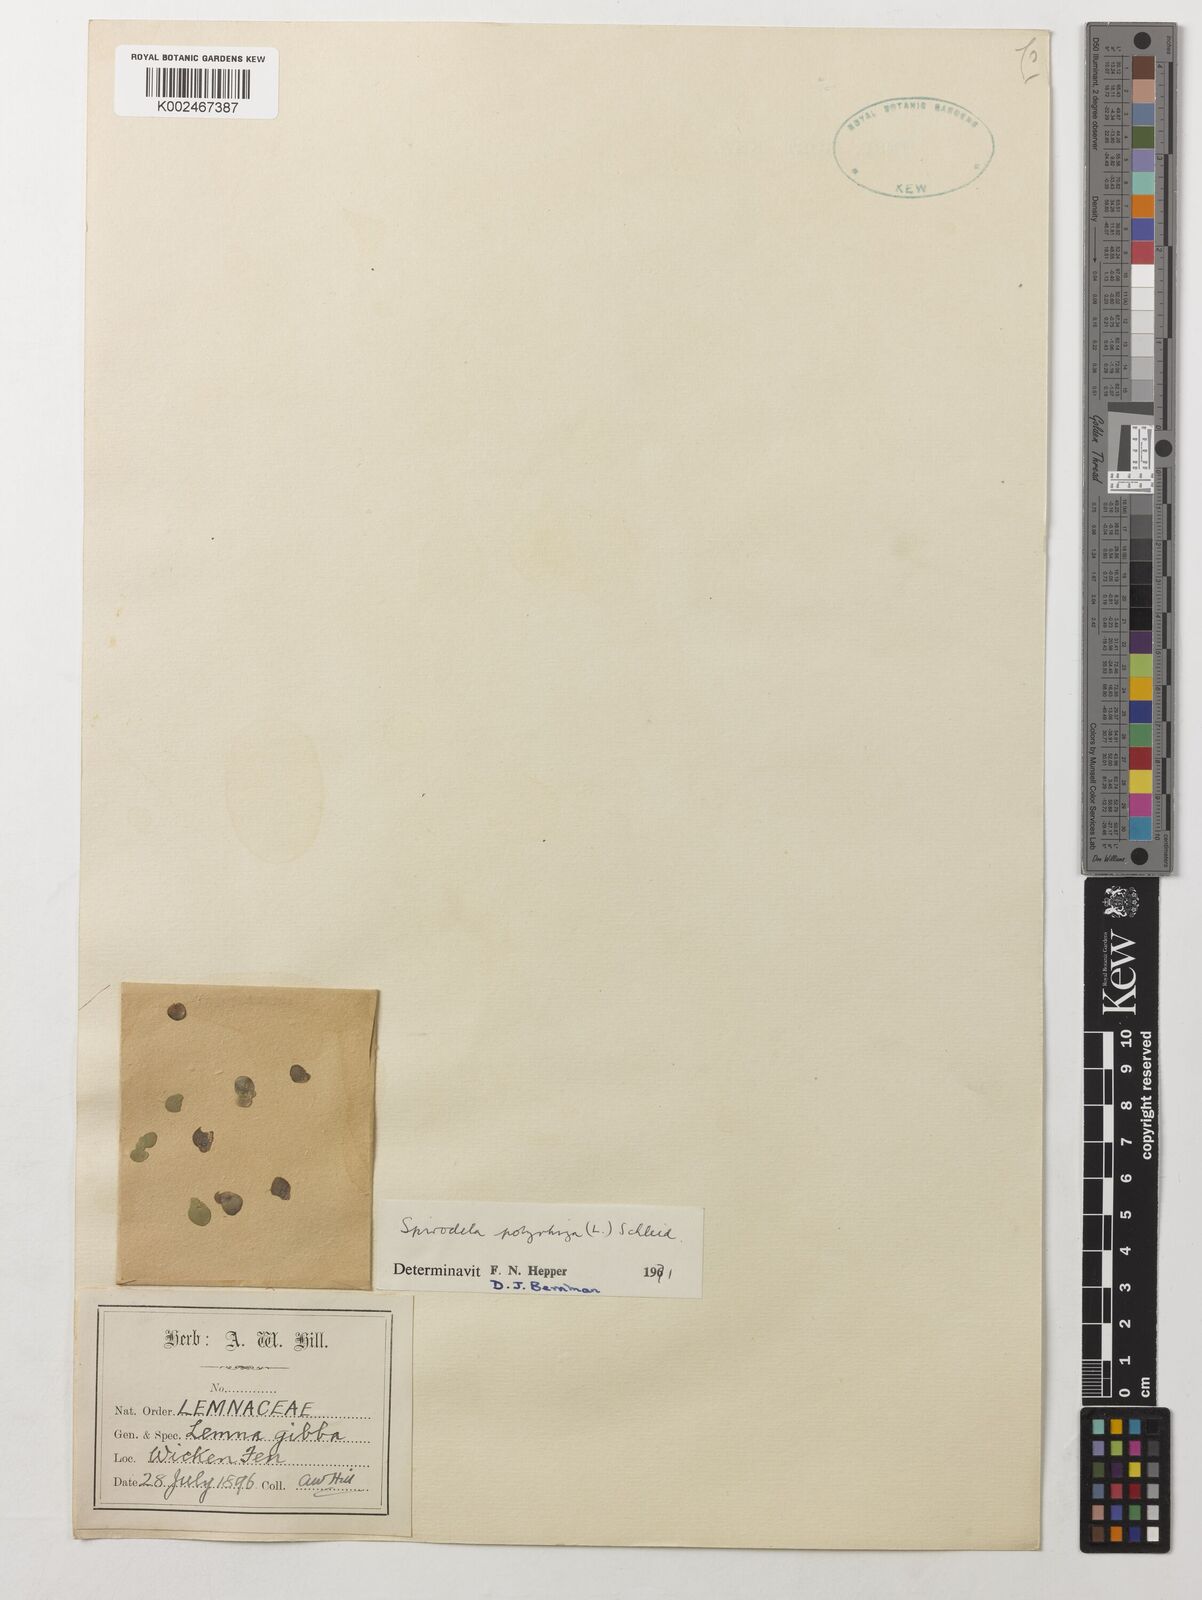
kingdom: Plantae
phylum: Tracheophyta
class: Liliopsida
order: Alismatales
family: Araceae
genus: Spirodela
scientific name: Spirodela polyrhiza
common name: Great duckweed
